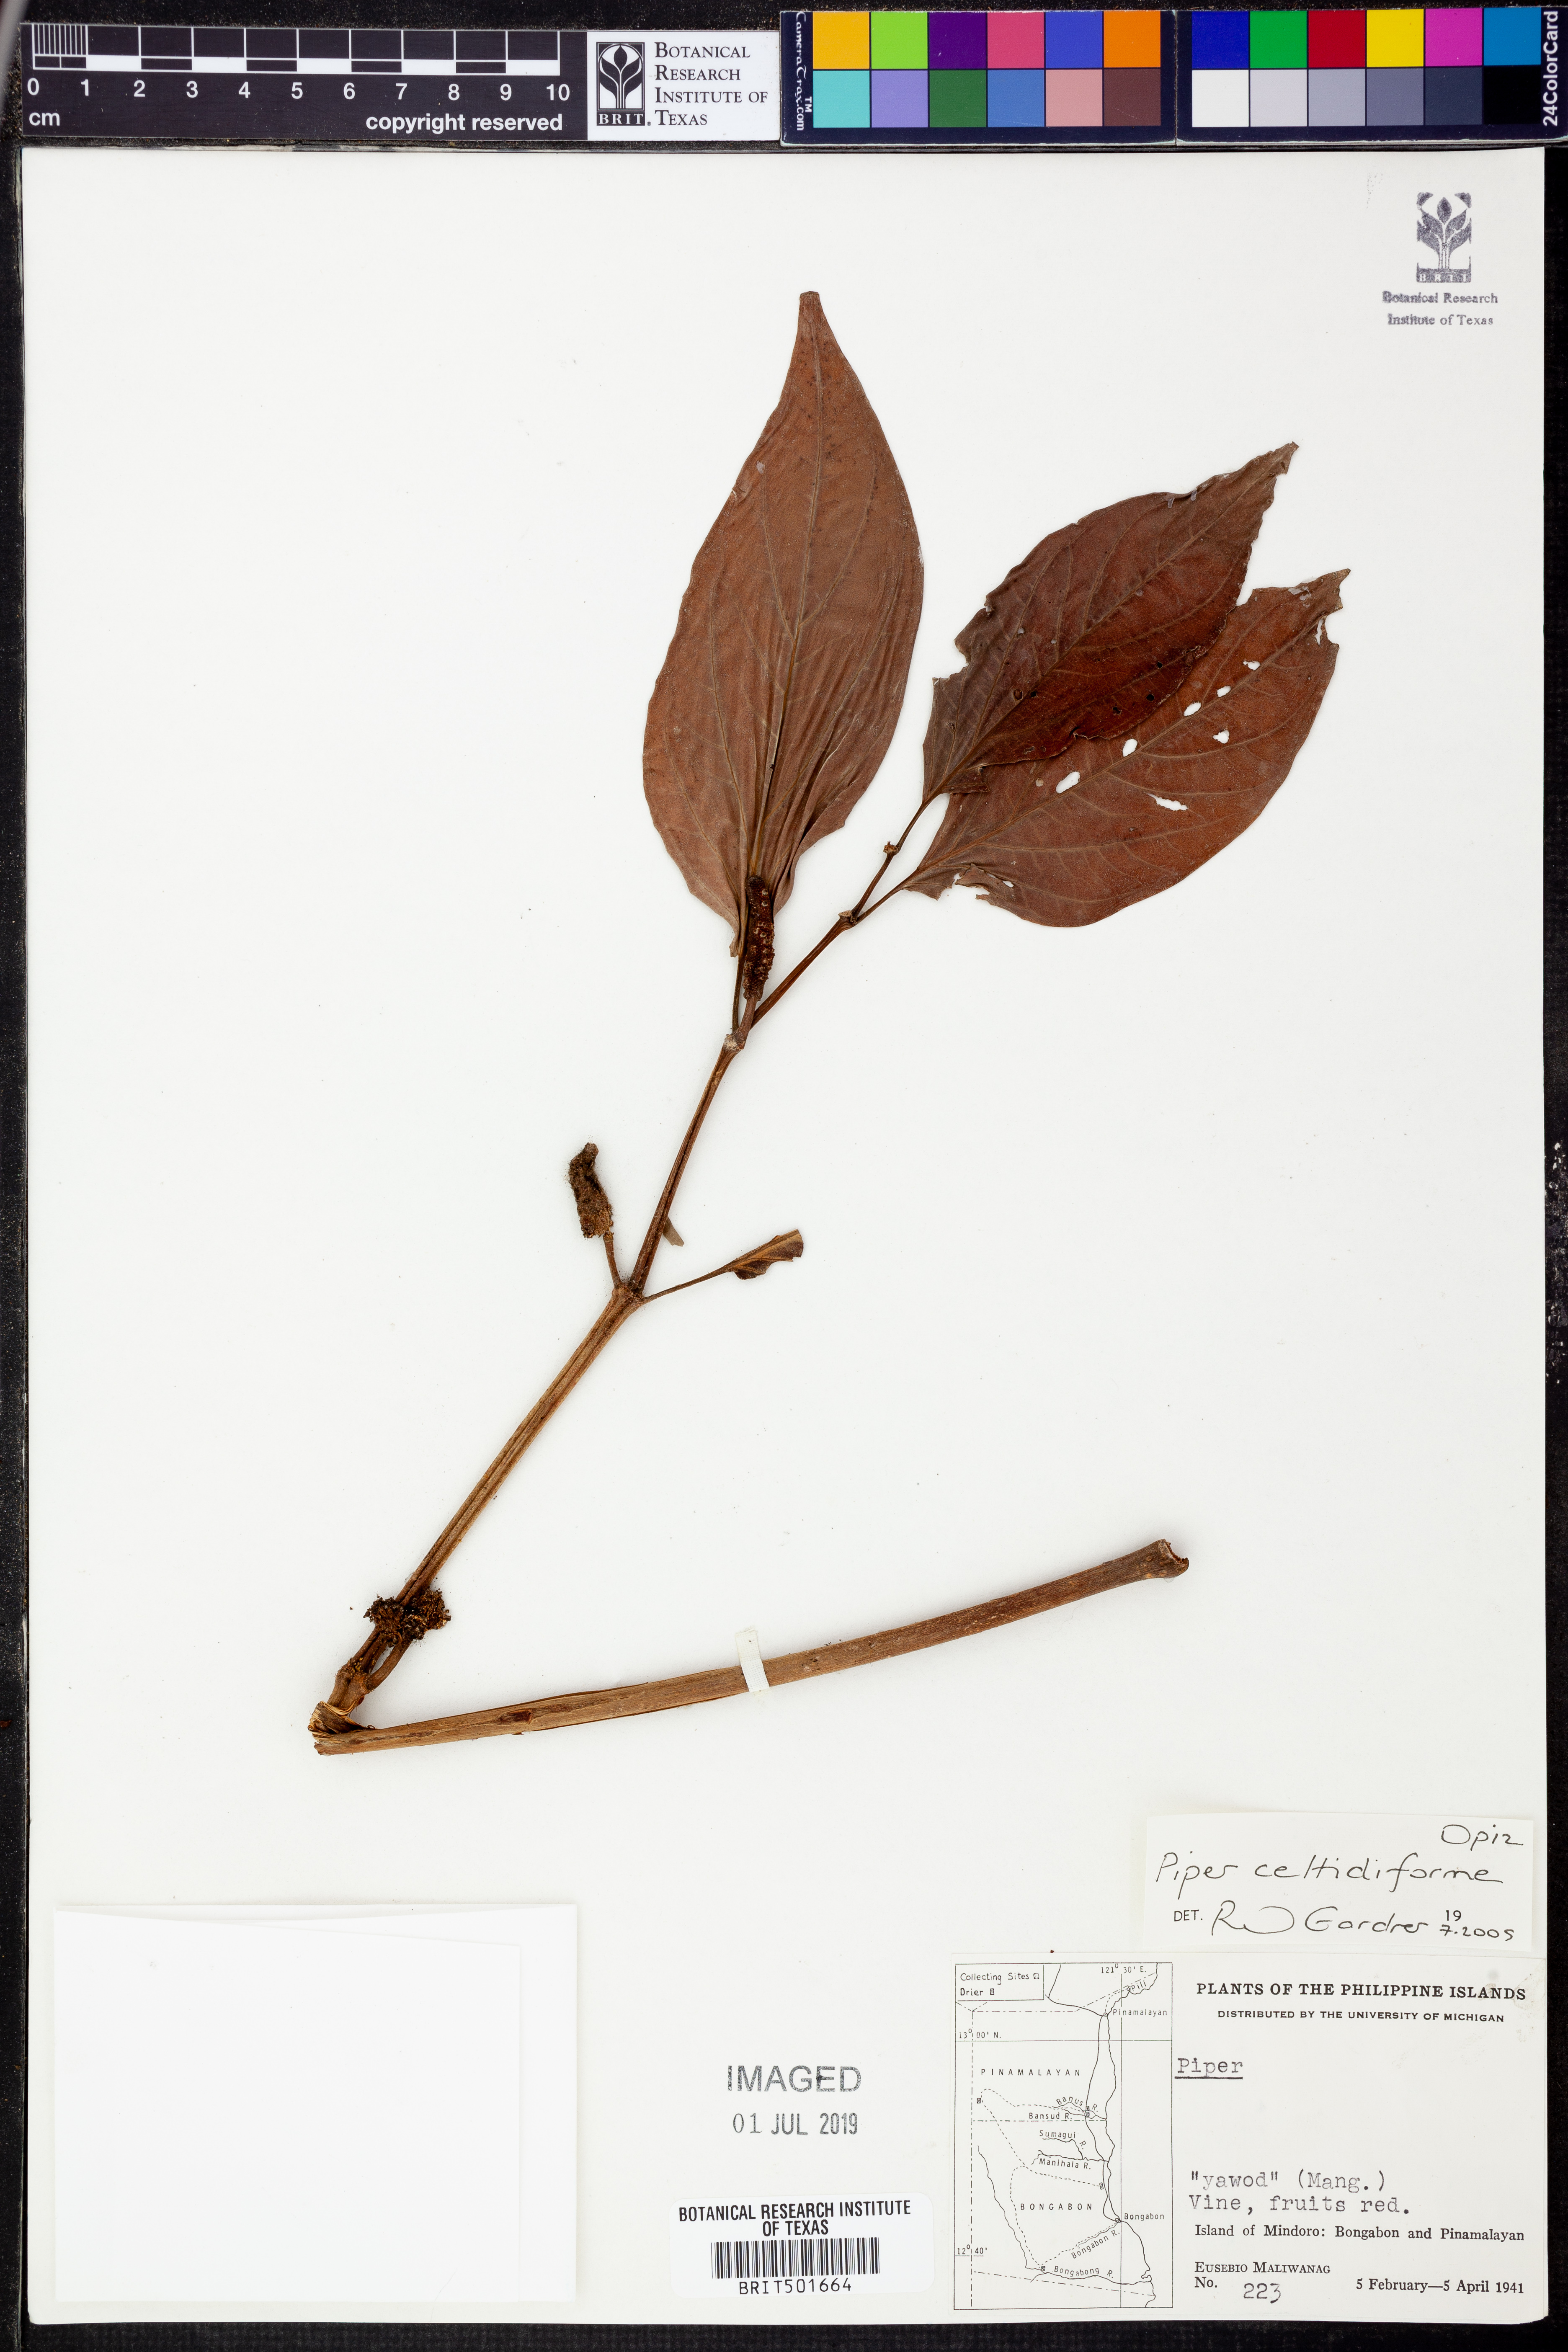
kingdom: Plantae
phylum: Tracheophyta
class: Magnoliopsida
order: Piperales
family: Piperaceae
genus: Piper
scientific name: Piper celtidiforme
